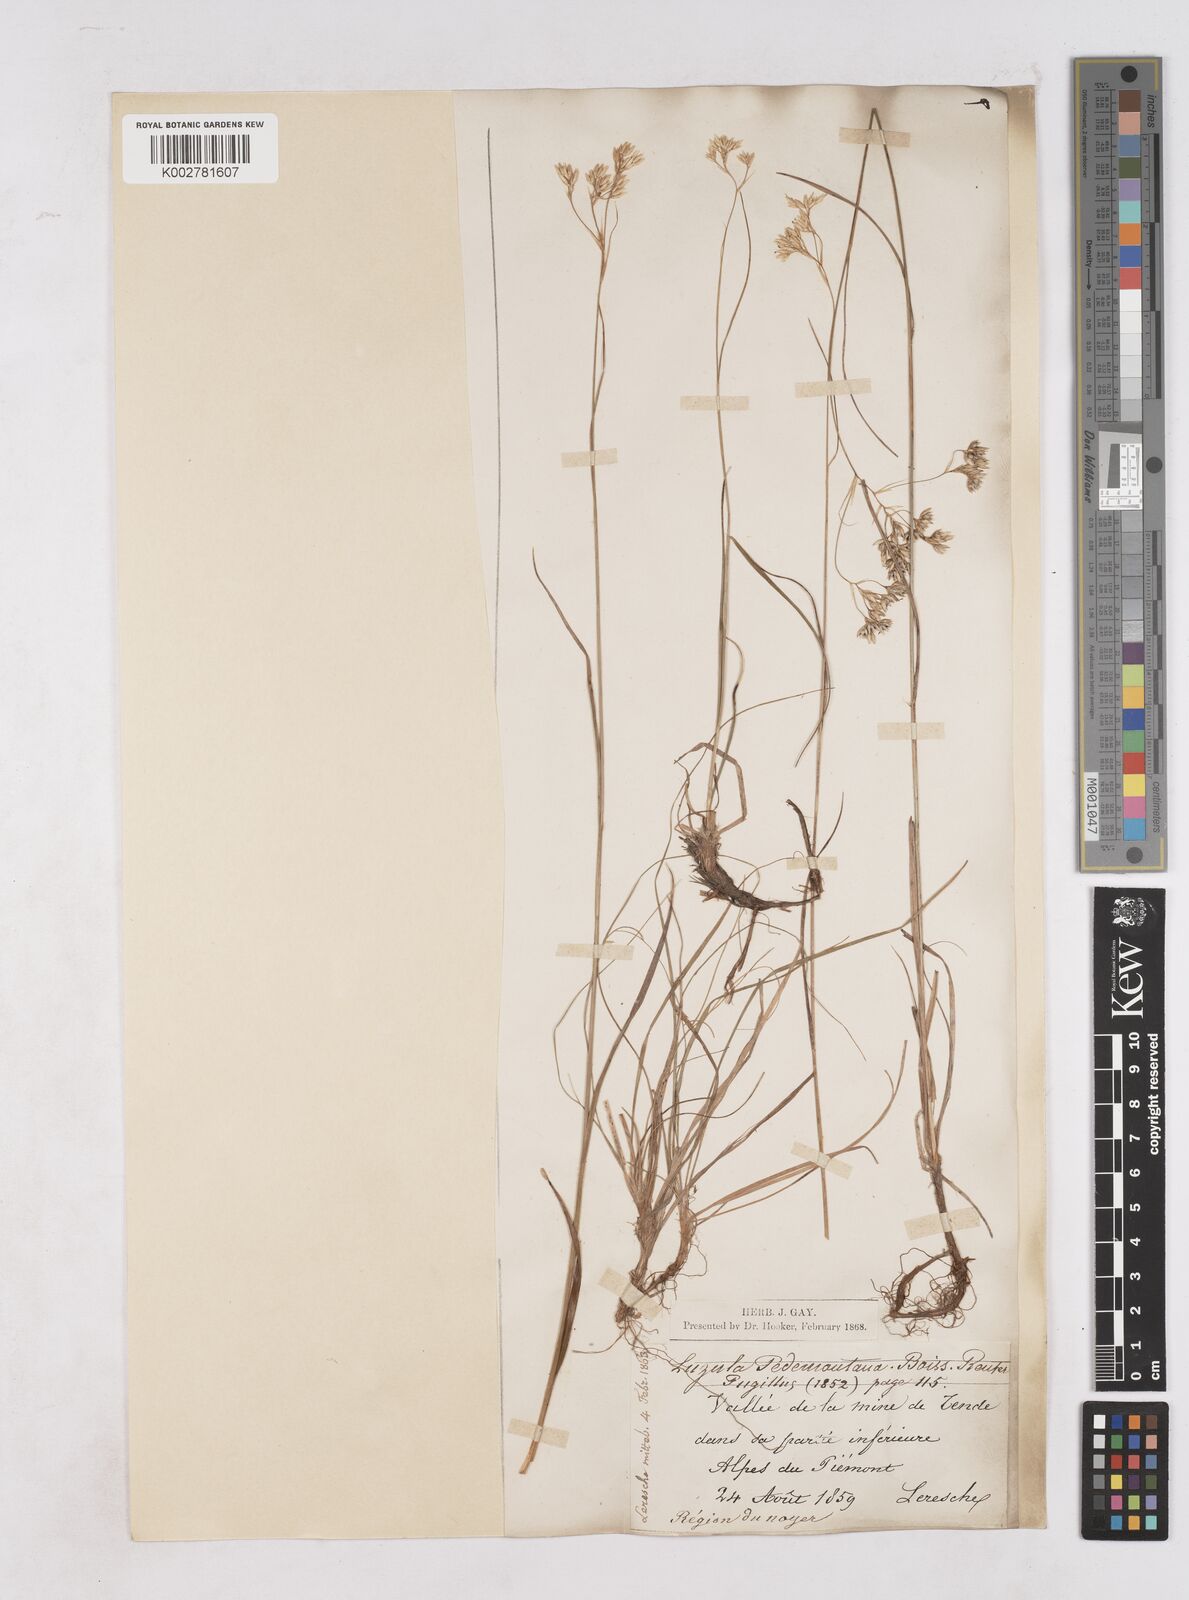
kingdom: Plantae
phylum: Tracheophyta
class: Liliopsida
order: Poales
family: Juncaceae
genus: Luzula
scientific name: Luzula pedemontana
